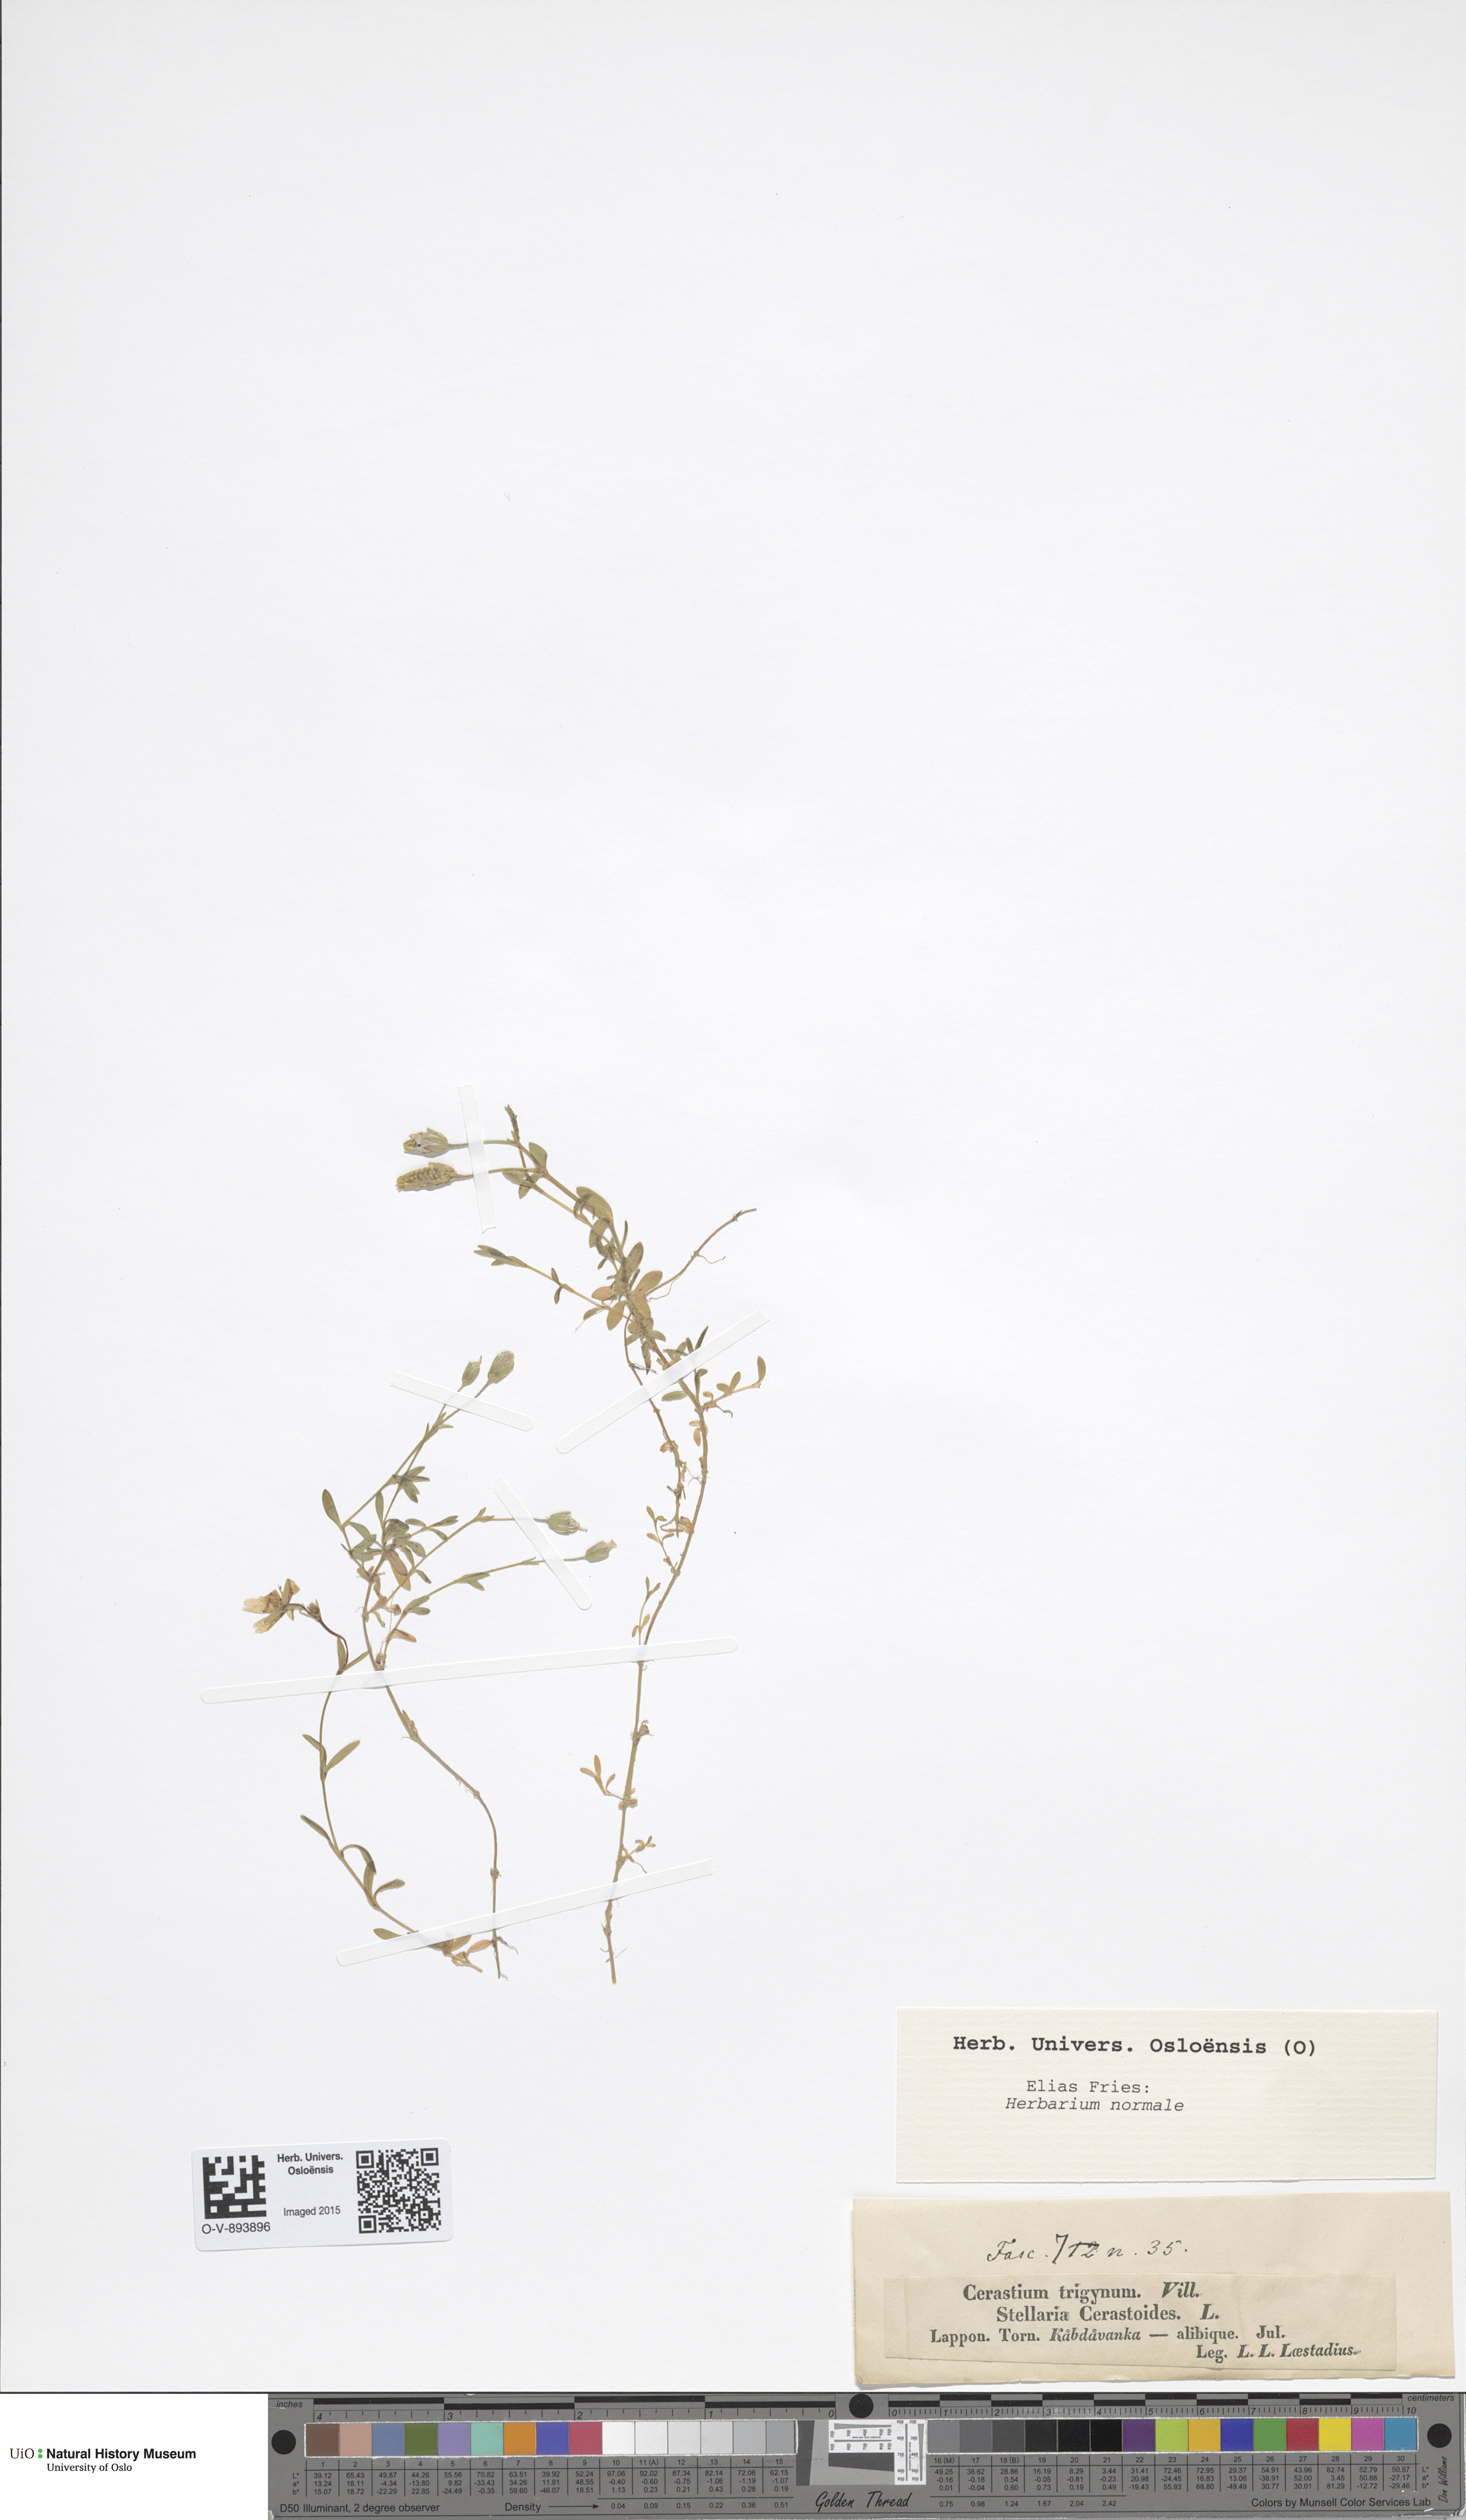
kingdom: Plantae
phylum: Tracheophyta
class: Magnoliopsida
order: Caryophyllales
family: Caryophyllaceae
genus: Dichodon
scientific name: Dichodon cerastoides
